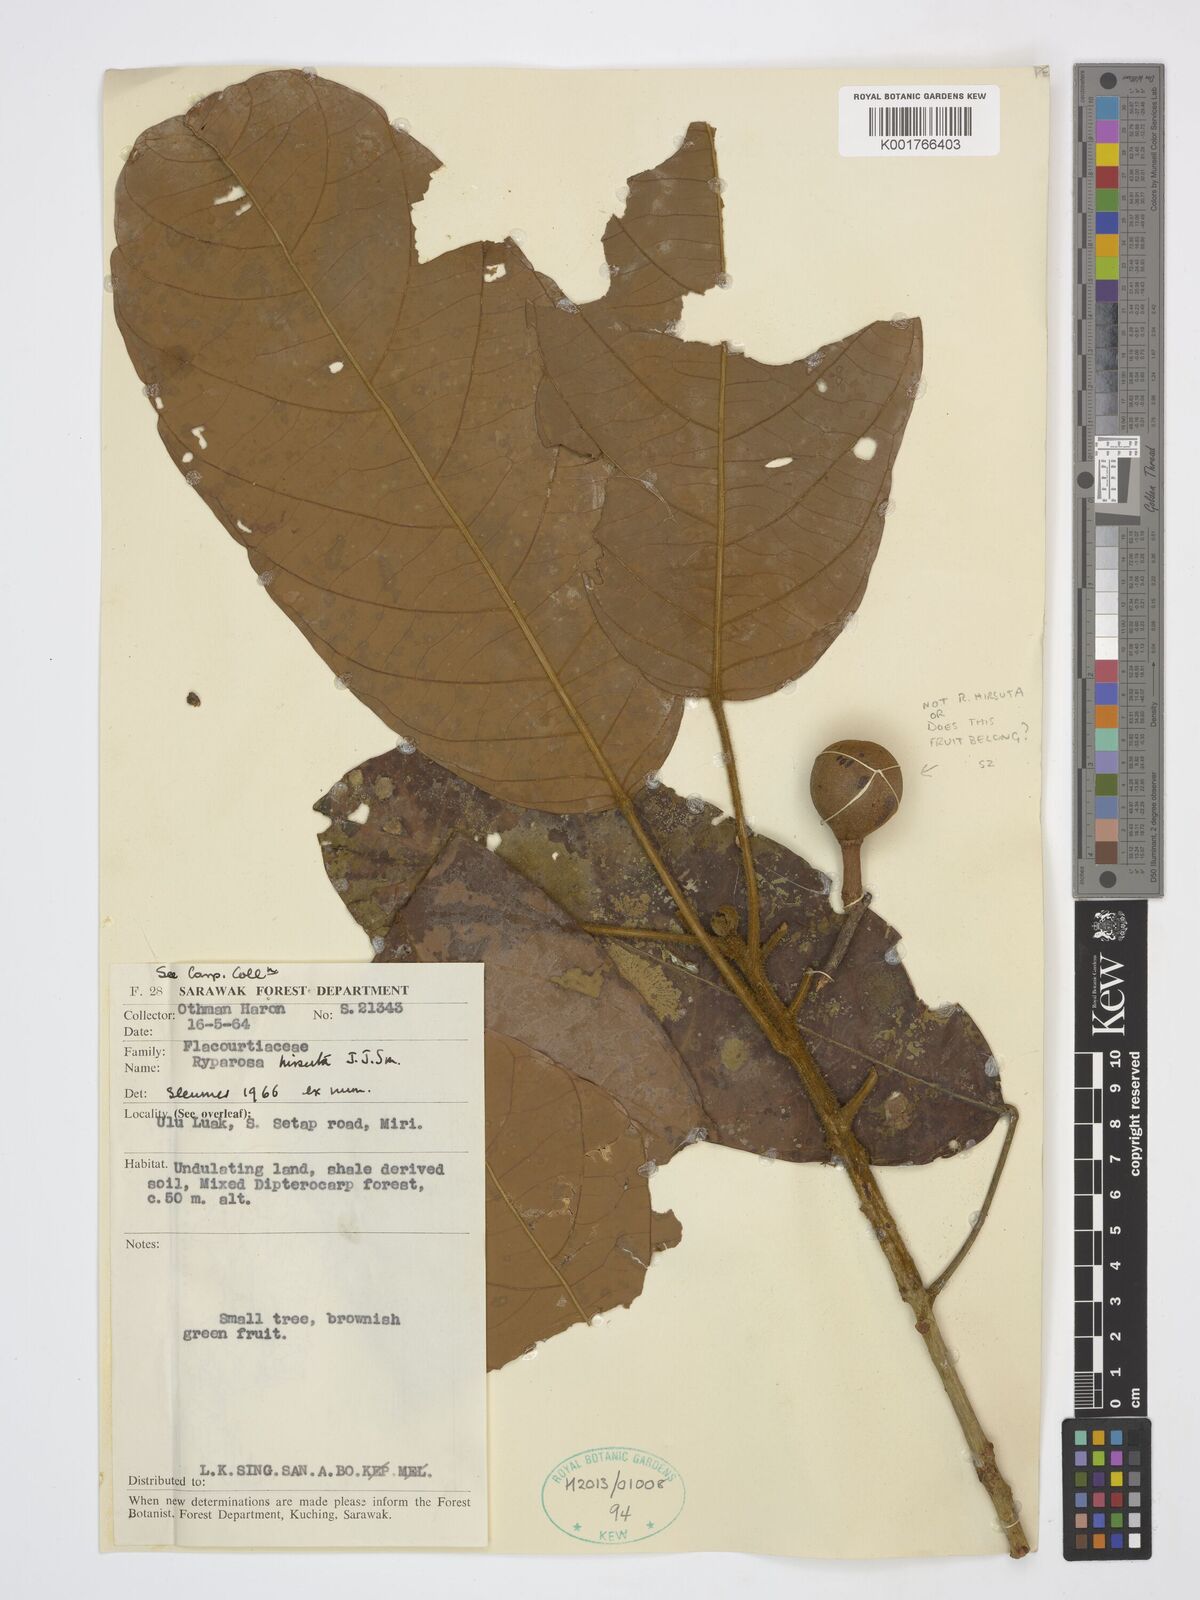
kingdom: Plantae
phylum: Tracheophyta
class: Magnoliopsida
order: Malpighiales
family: Achariaceae
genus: Ryparosa
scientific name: Ryparosa hirsuta
